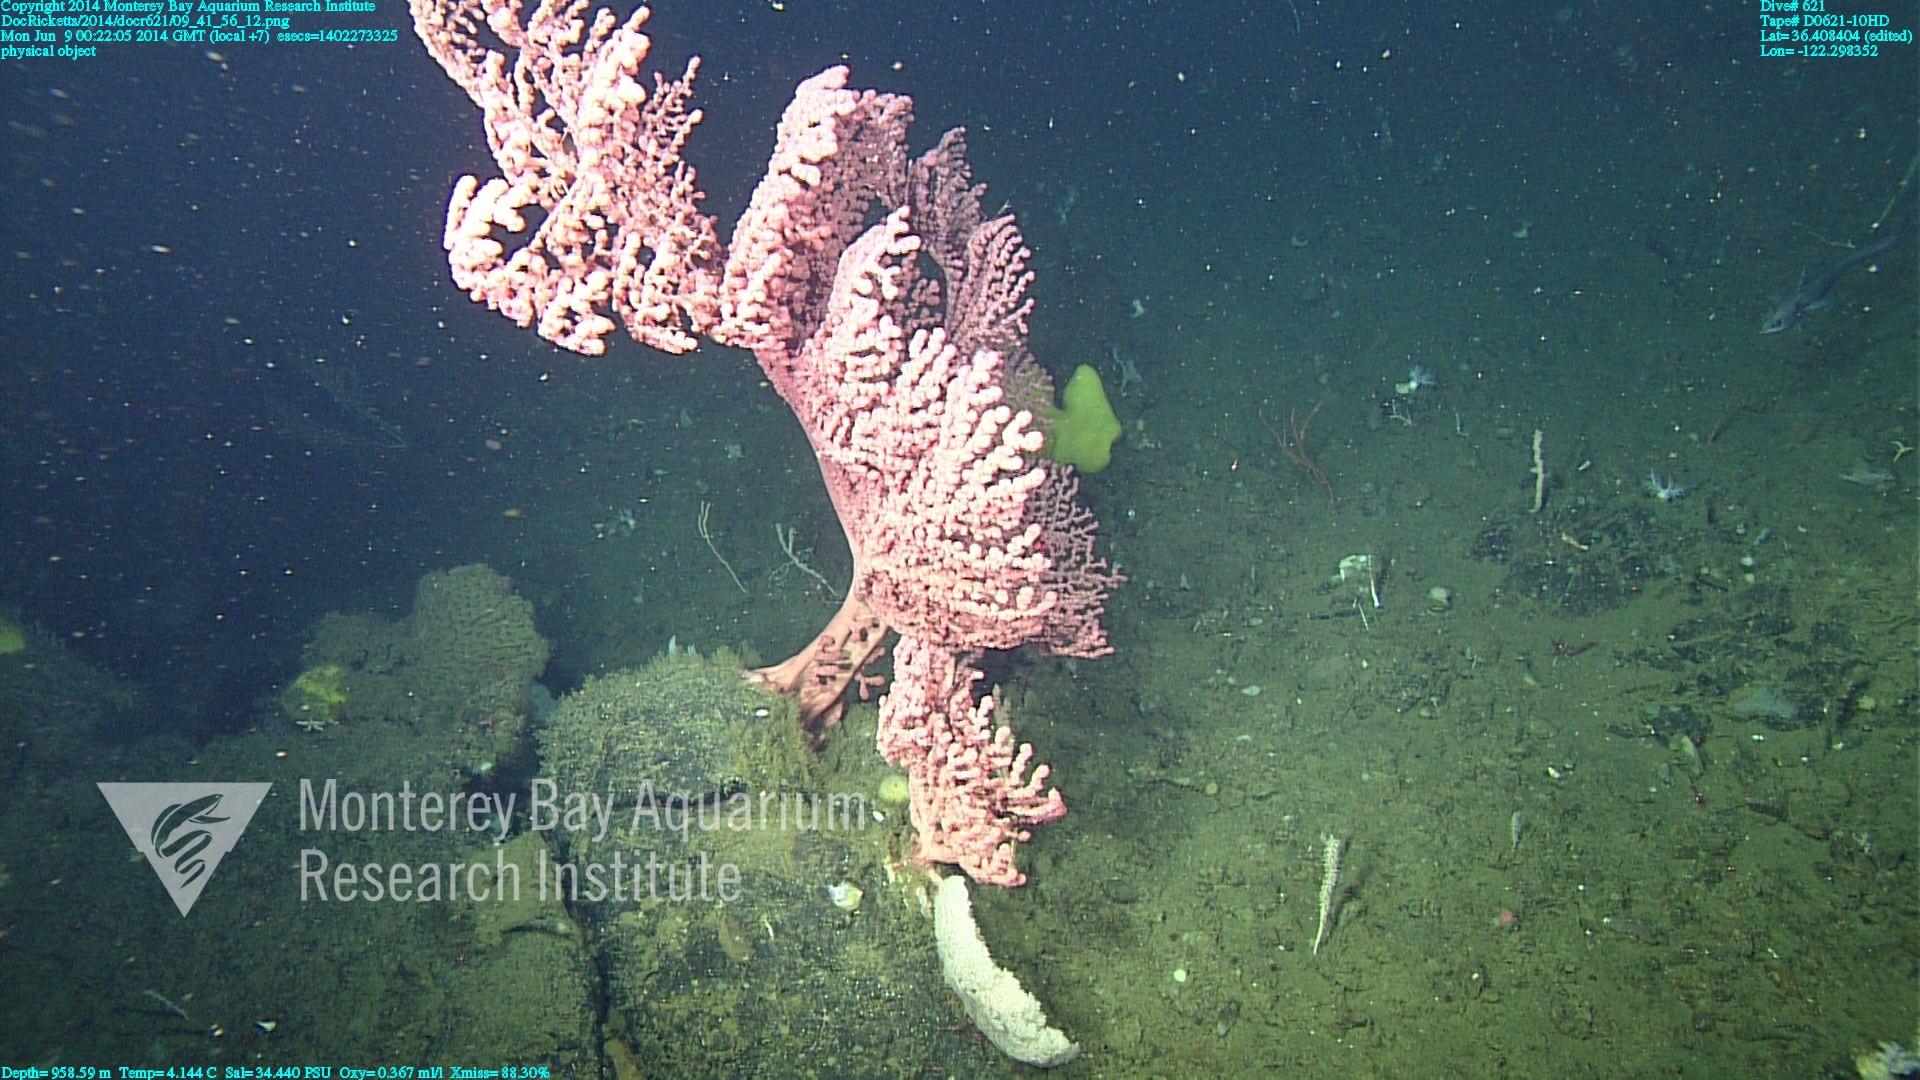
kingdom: Animalia
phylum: Cnidaria
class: Anthozoa
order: Scleralcyonacea
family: Coralliidae
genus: Paragorgia
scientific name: Paragorgia arborea
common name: Bubble gum coral
